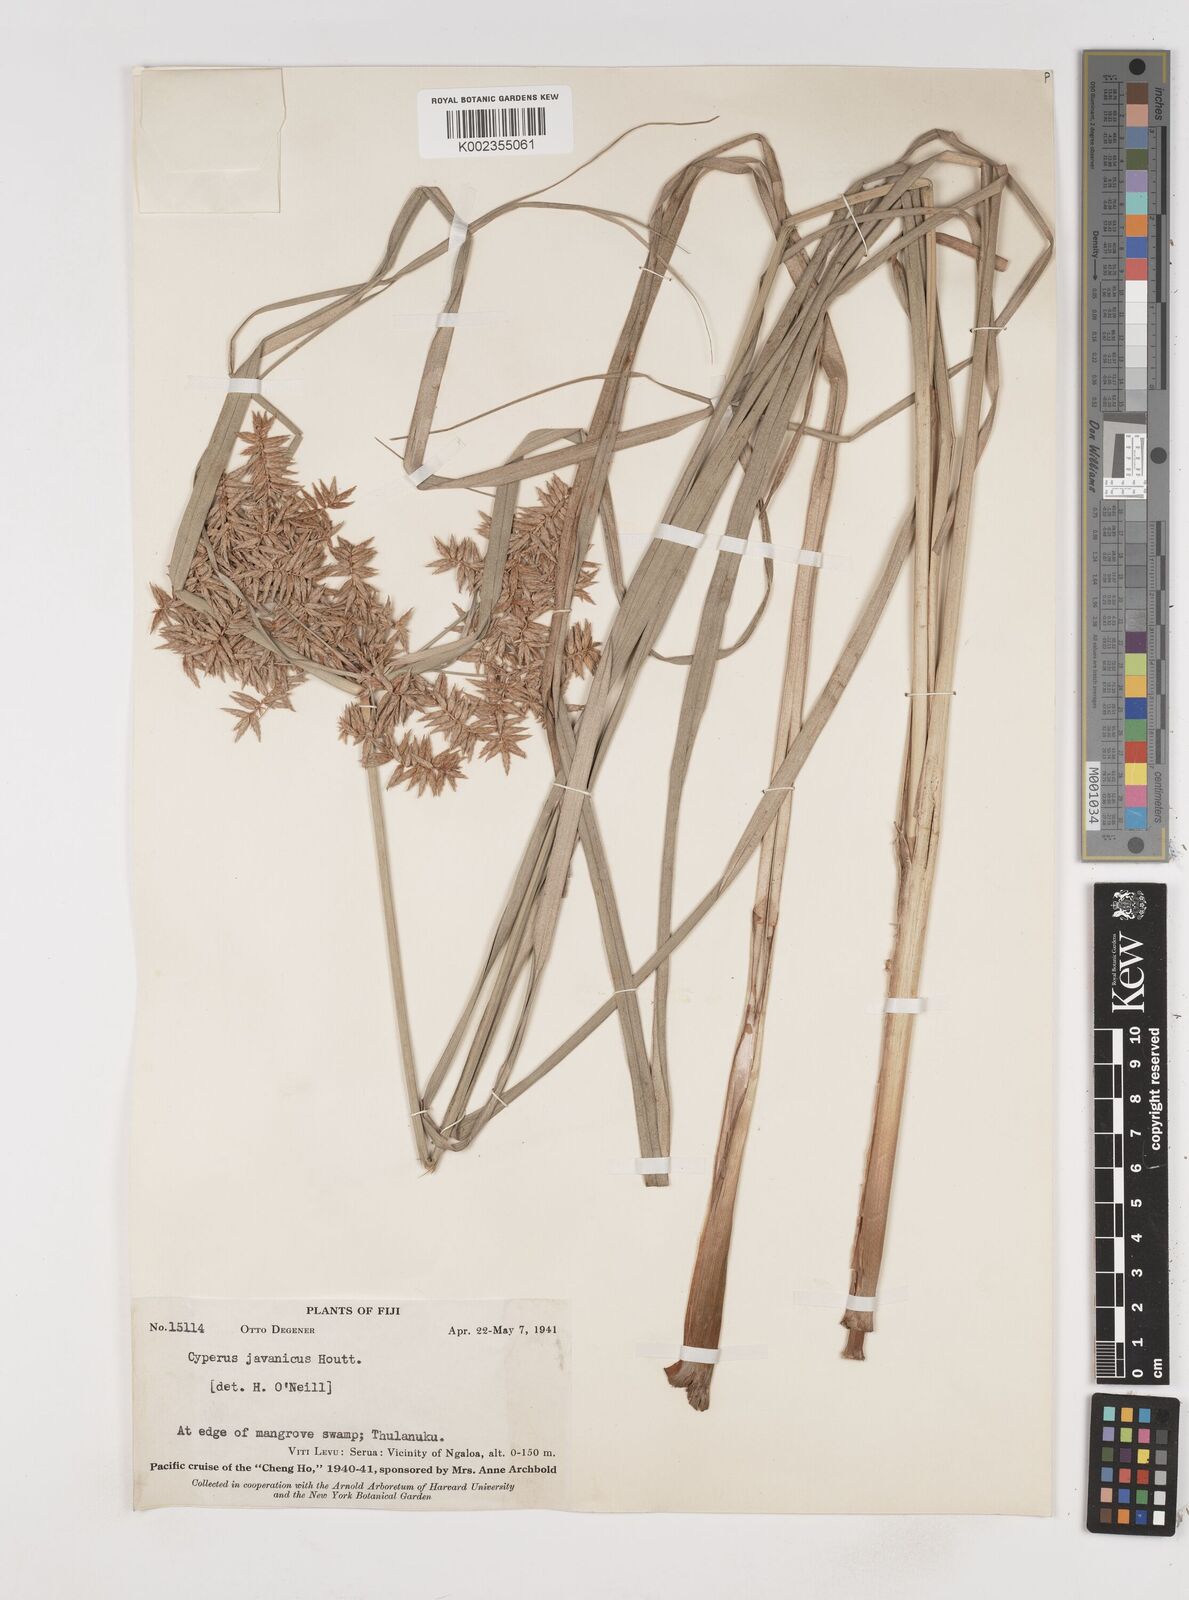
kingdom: Plantae
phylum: Tracheophyta
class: Liliopsida
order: Poales
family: Cyperaceae
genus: Cyperus
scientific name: Cyperus javanicus
